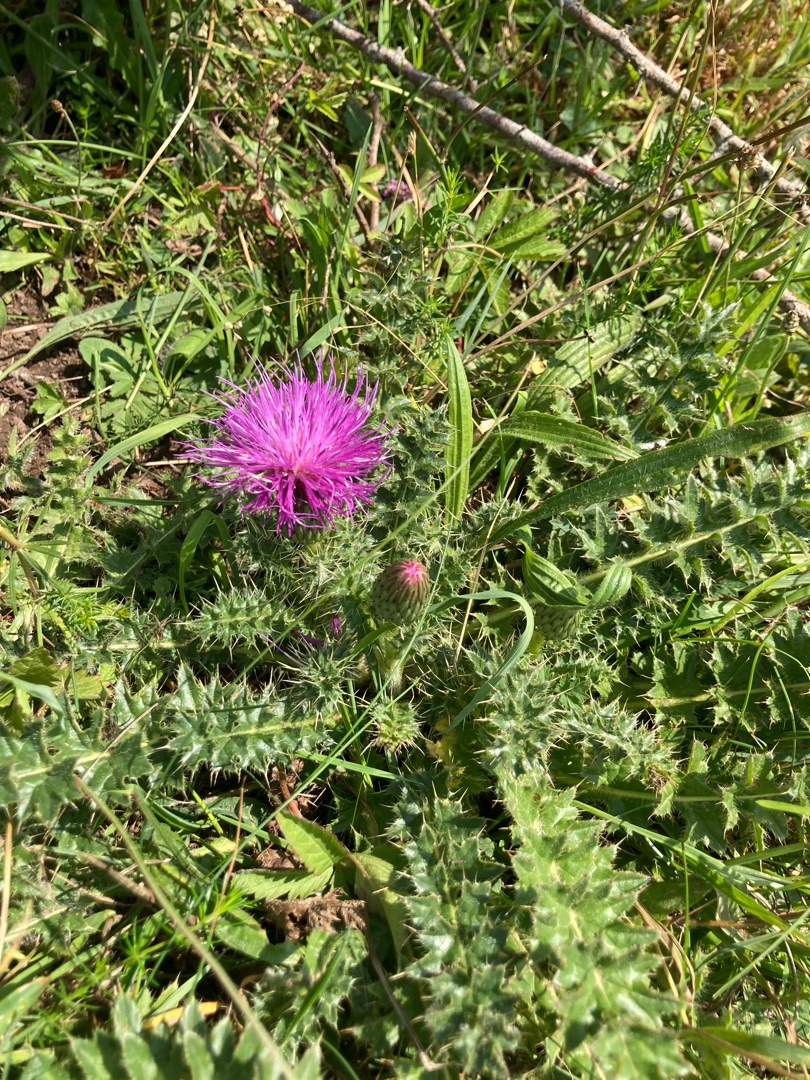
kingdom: Plantae
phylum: Tracheophyta
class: Magnoliopsida
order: Asterales
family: Asteraceae
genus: Cirsium
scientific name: Cirsium acaule
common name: Lav tidsel
